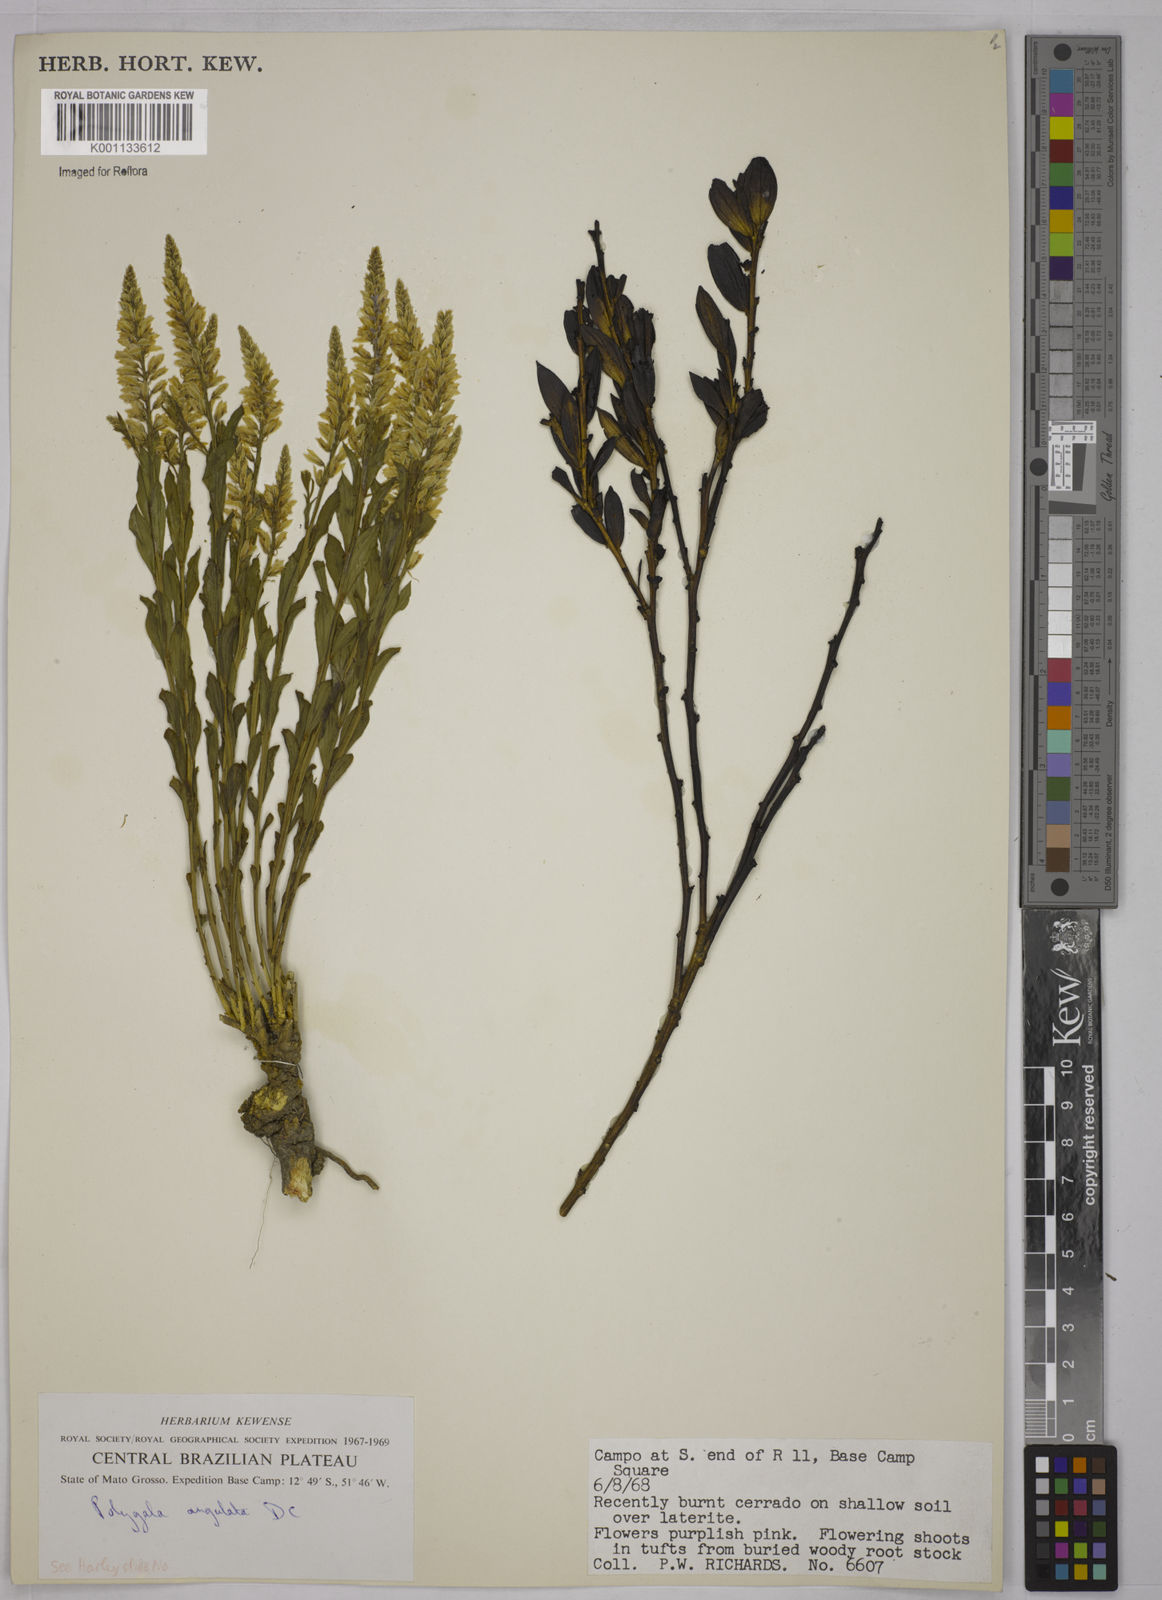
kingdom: Plantae
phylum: Tracheophyta
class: Magnoliopsida
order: Fabales
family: Polygalaceae
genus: Polygala
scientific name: Polygala poaya
